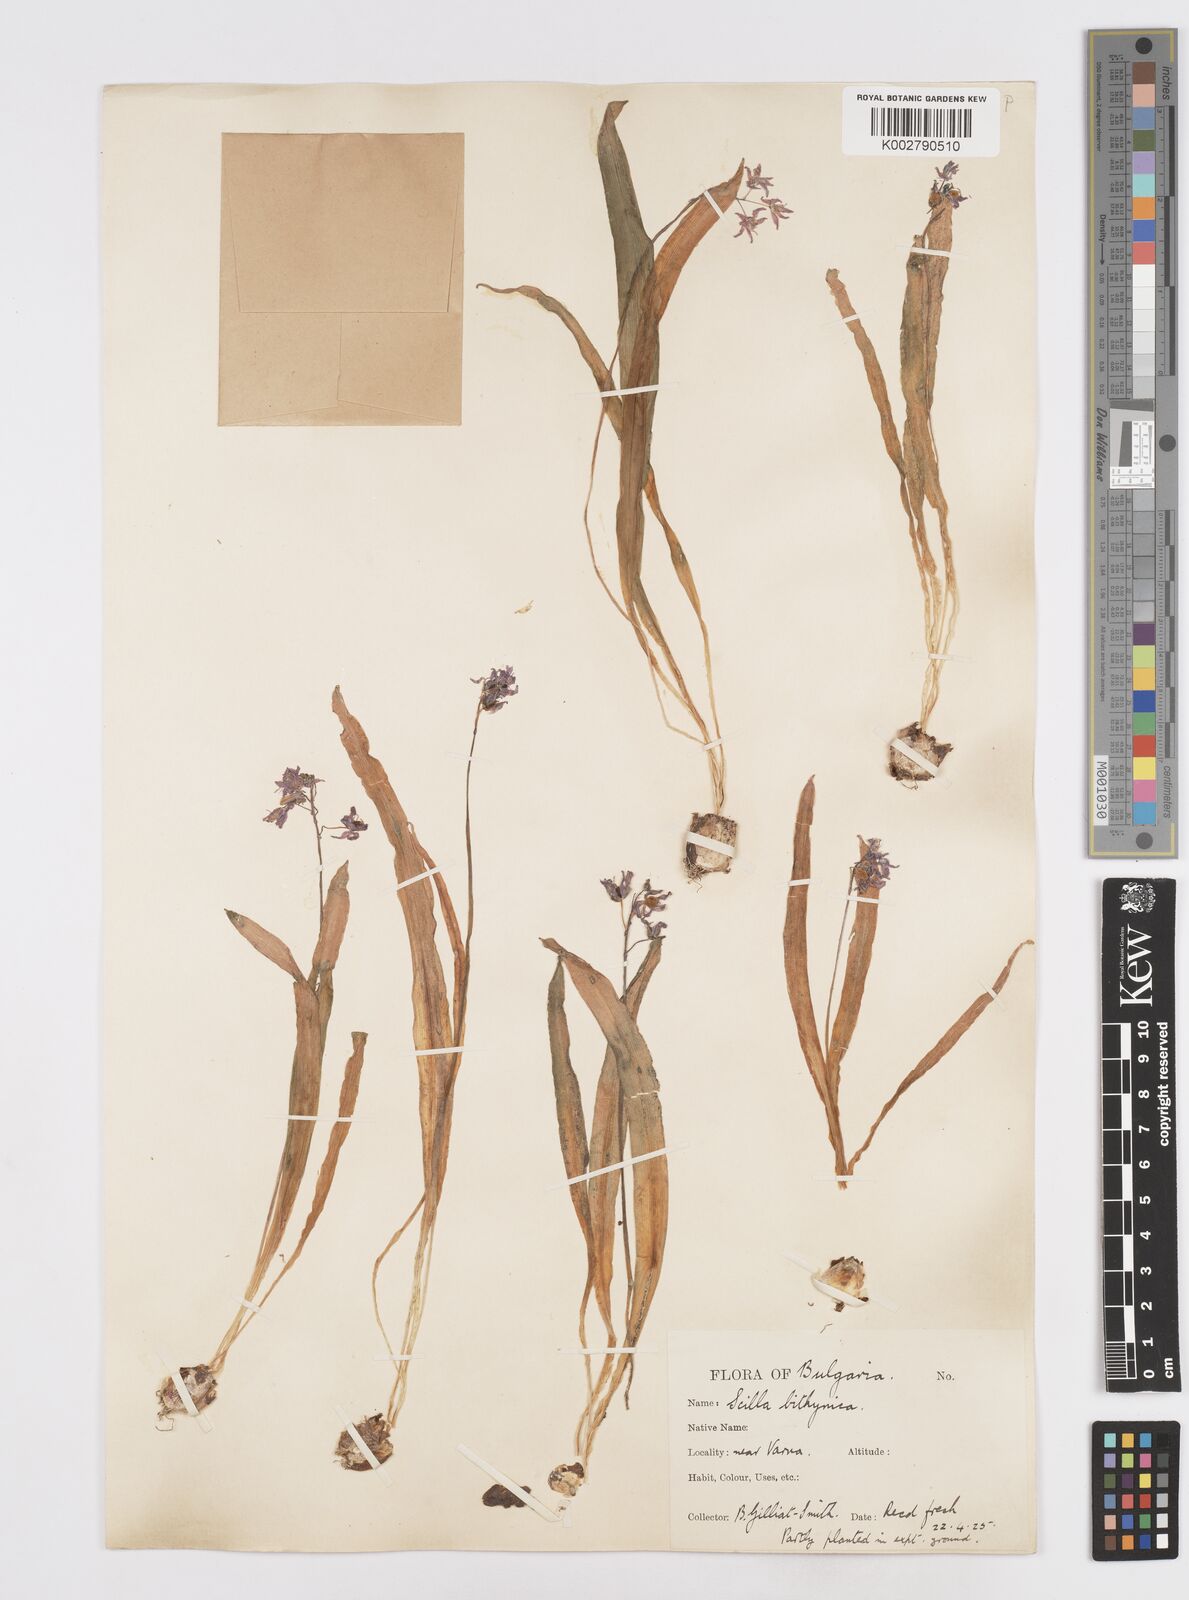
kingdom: Plantae
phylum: Tracheophyta
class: Liliopsida
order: Asparagales
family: Asparagaceae
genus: Scilla
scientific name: Scilla bithynica
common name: Turkish squill
